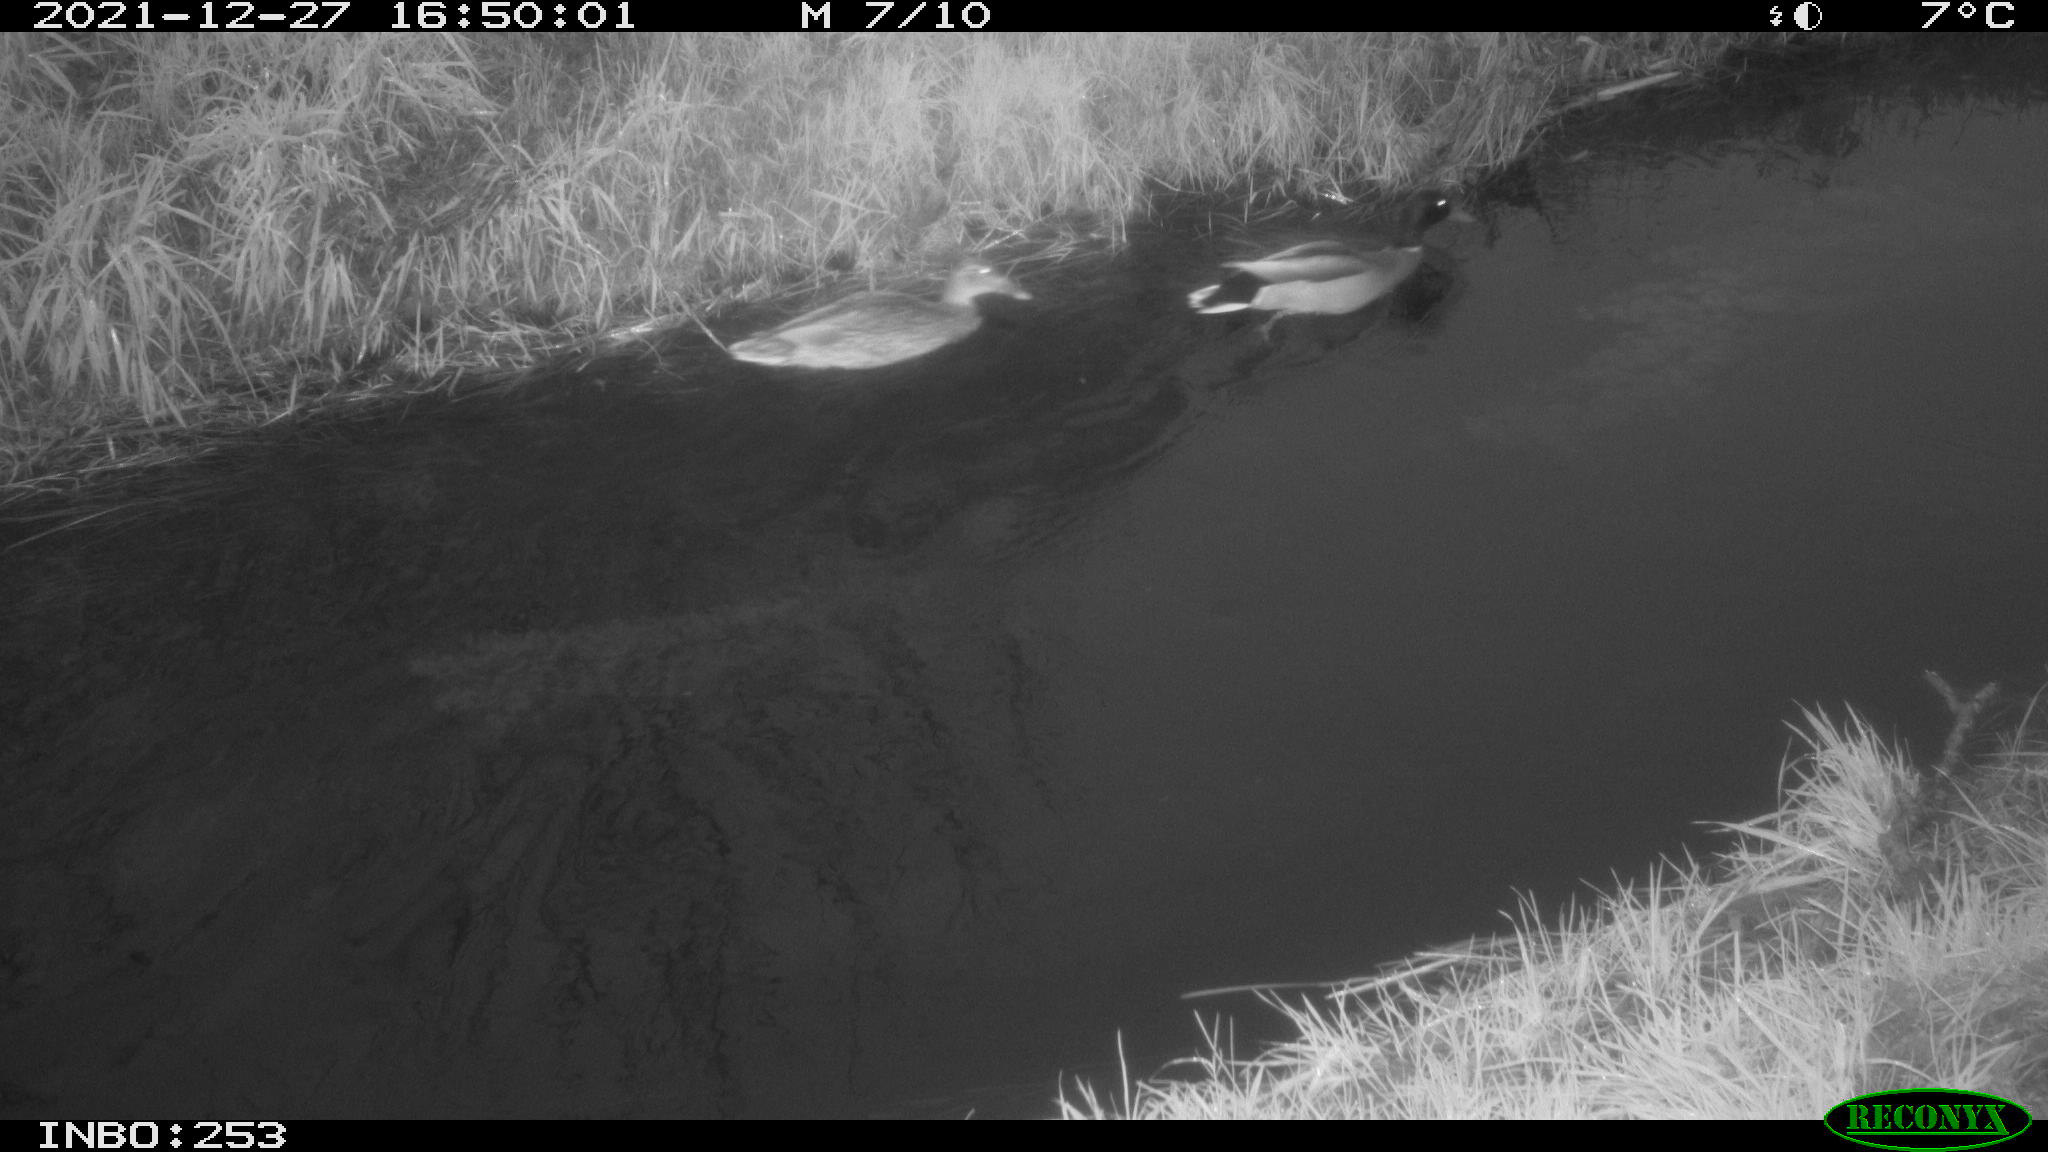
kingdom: Animalia
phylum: Chordata
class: Aves
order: Anseriformes
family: Anatidae
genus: Anas
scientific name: Anas platyrhynchos
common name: Mallard
